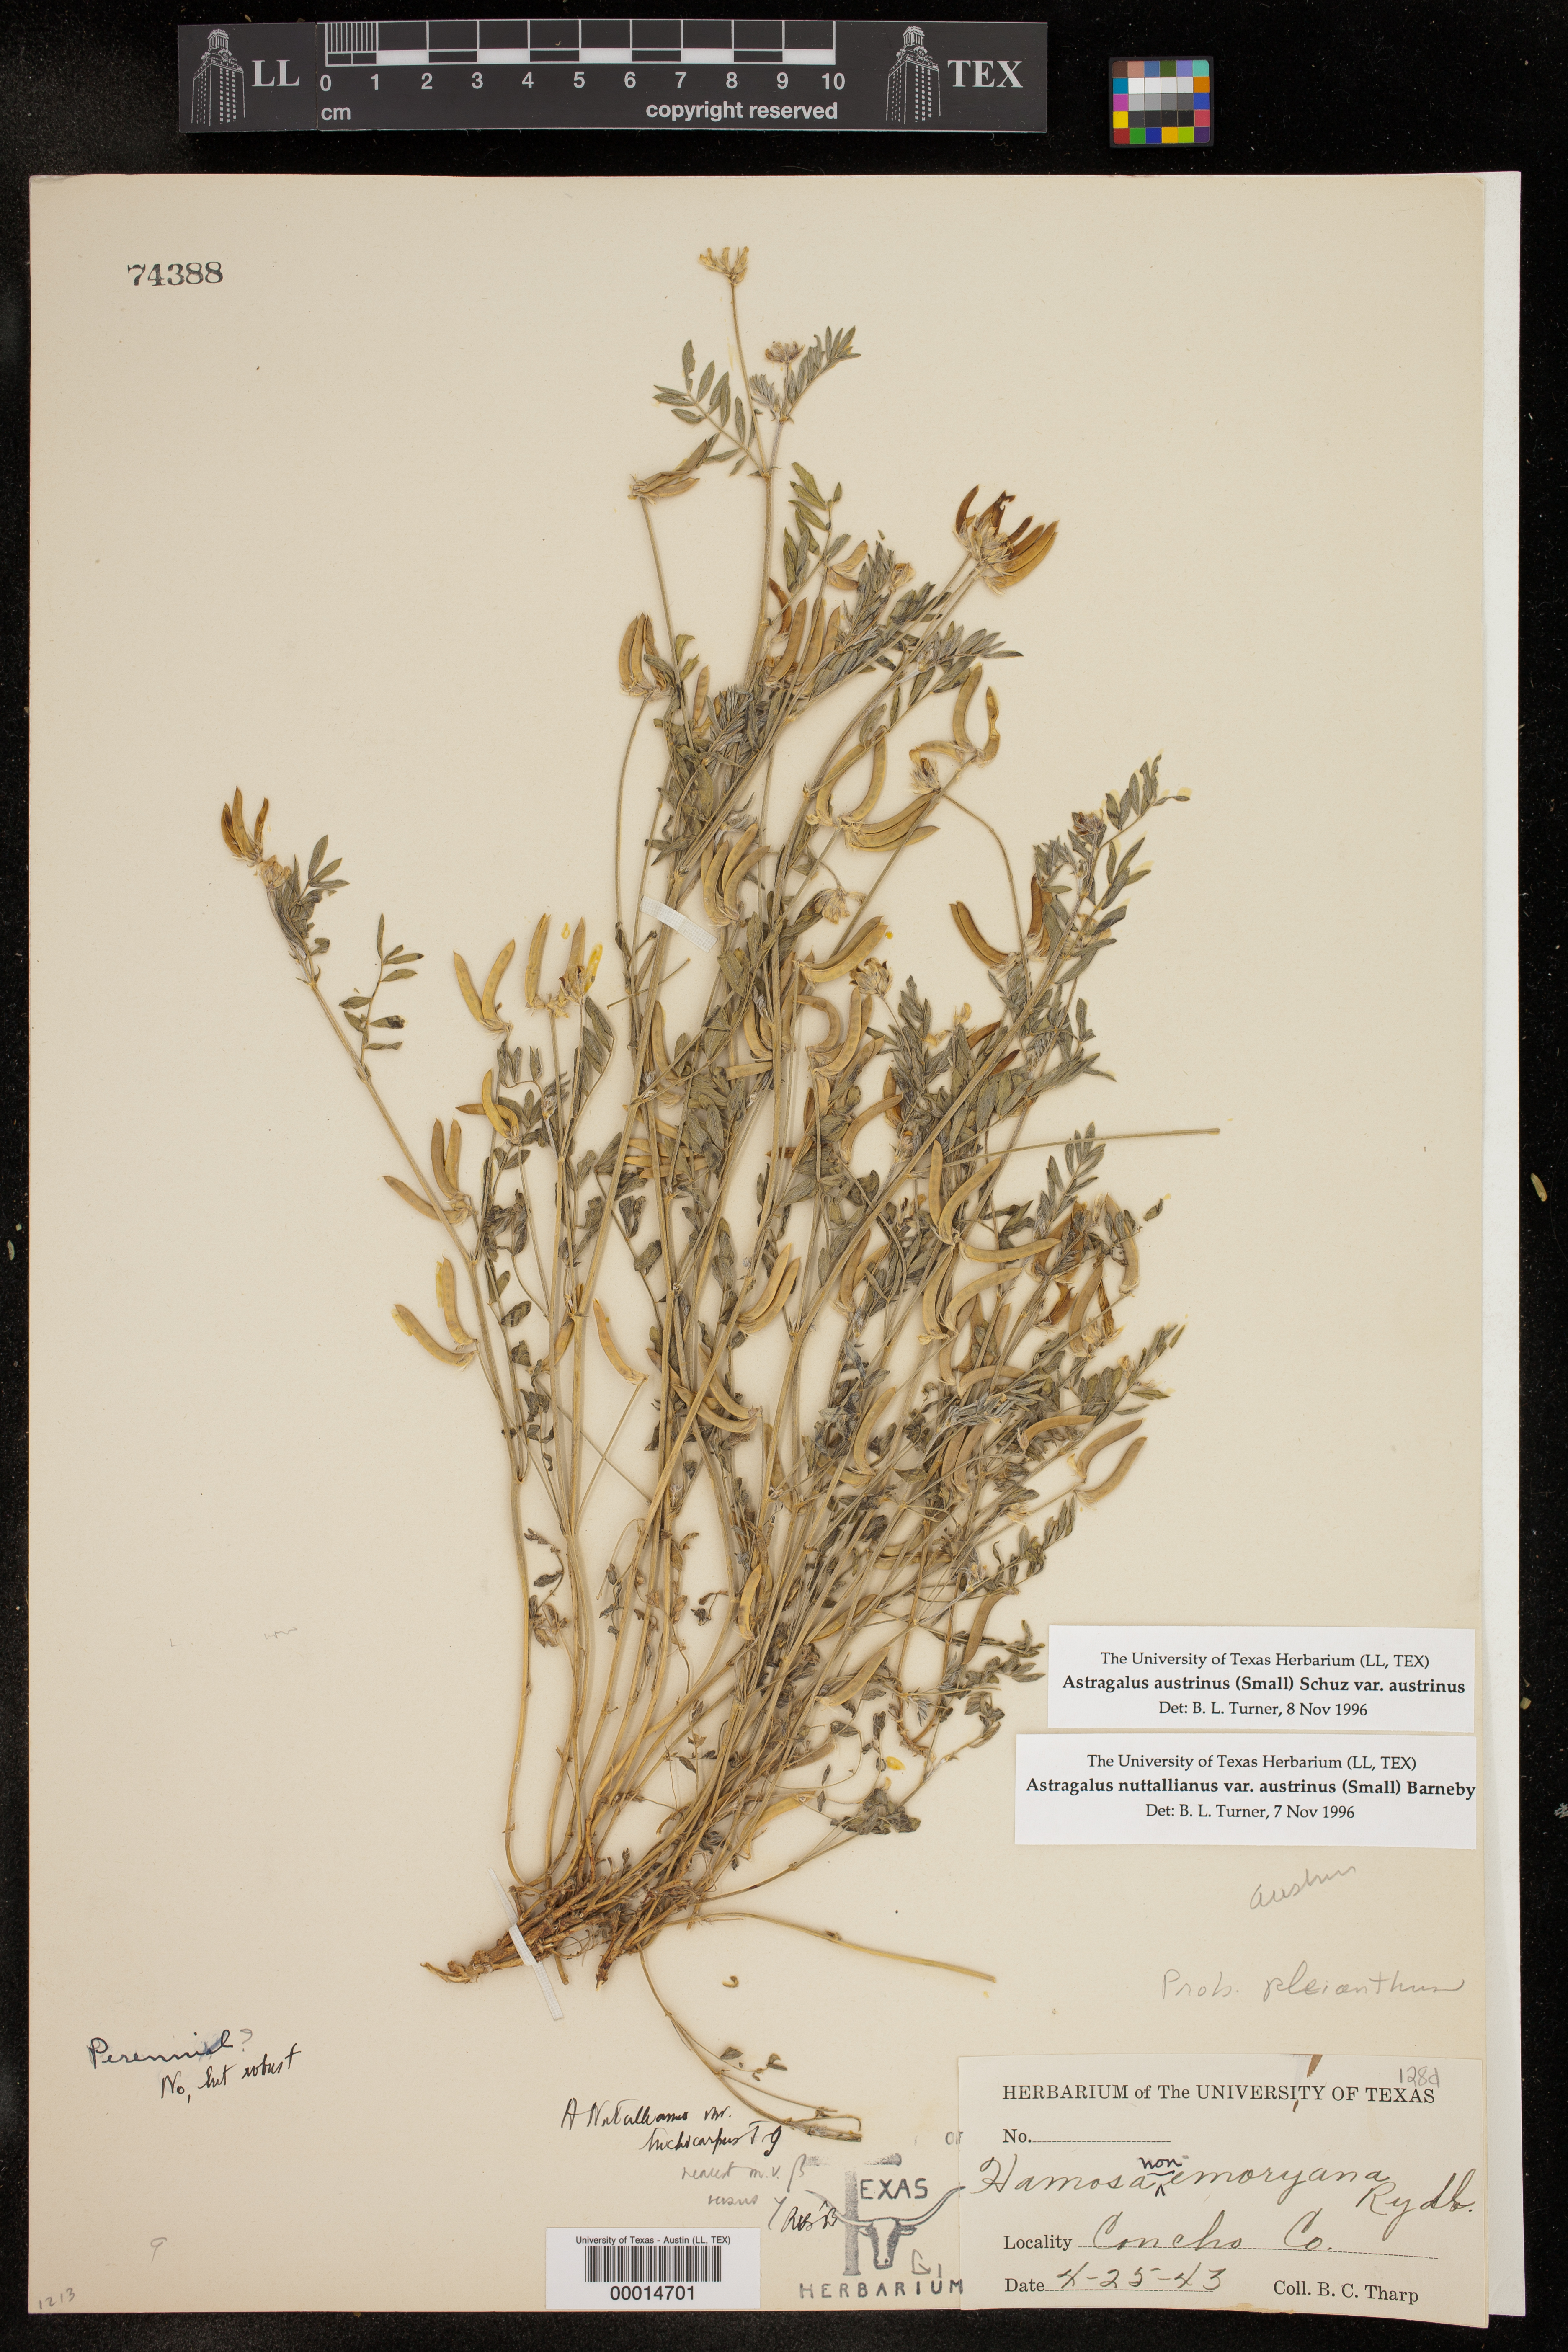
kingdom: Plantae
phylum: Tracheophyta
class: Magnoliopsida
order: Fabales
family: Fabaceae
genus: Astragalus
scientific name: Astragalus nuttallianus
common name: Smallflowered milkvetch
